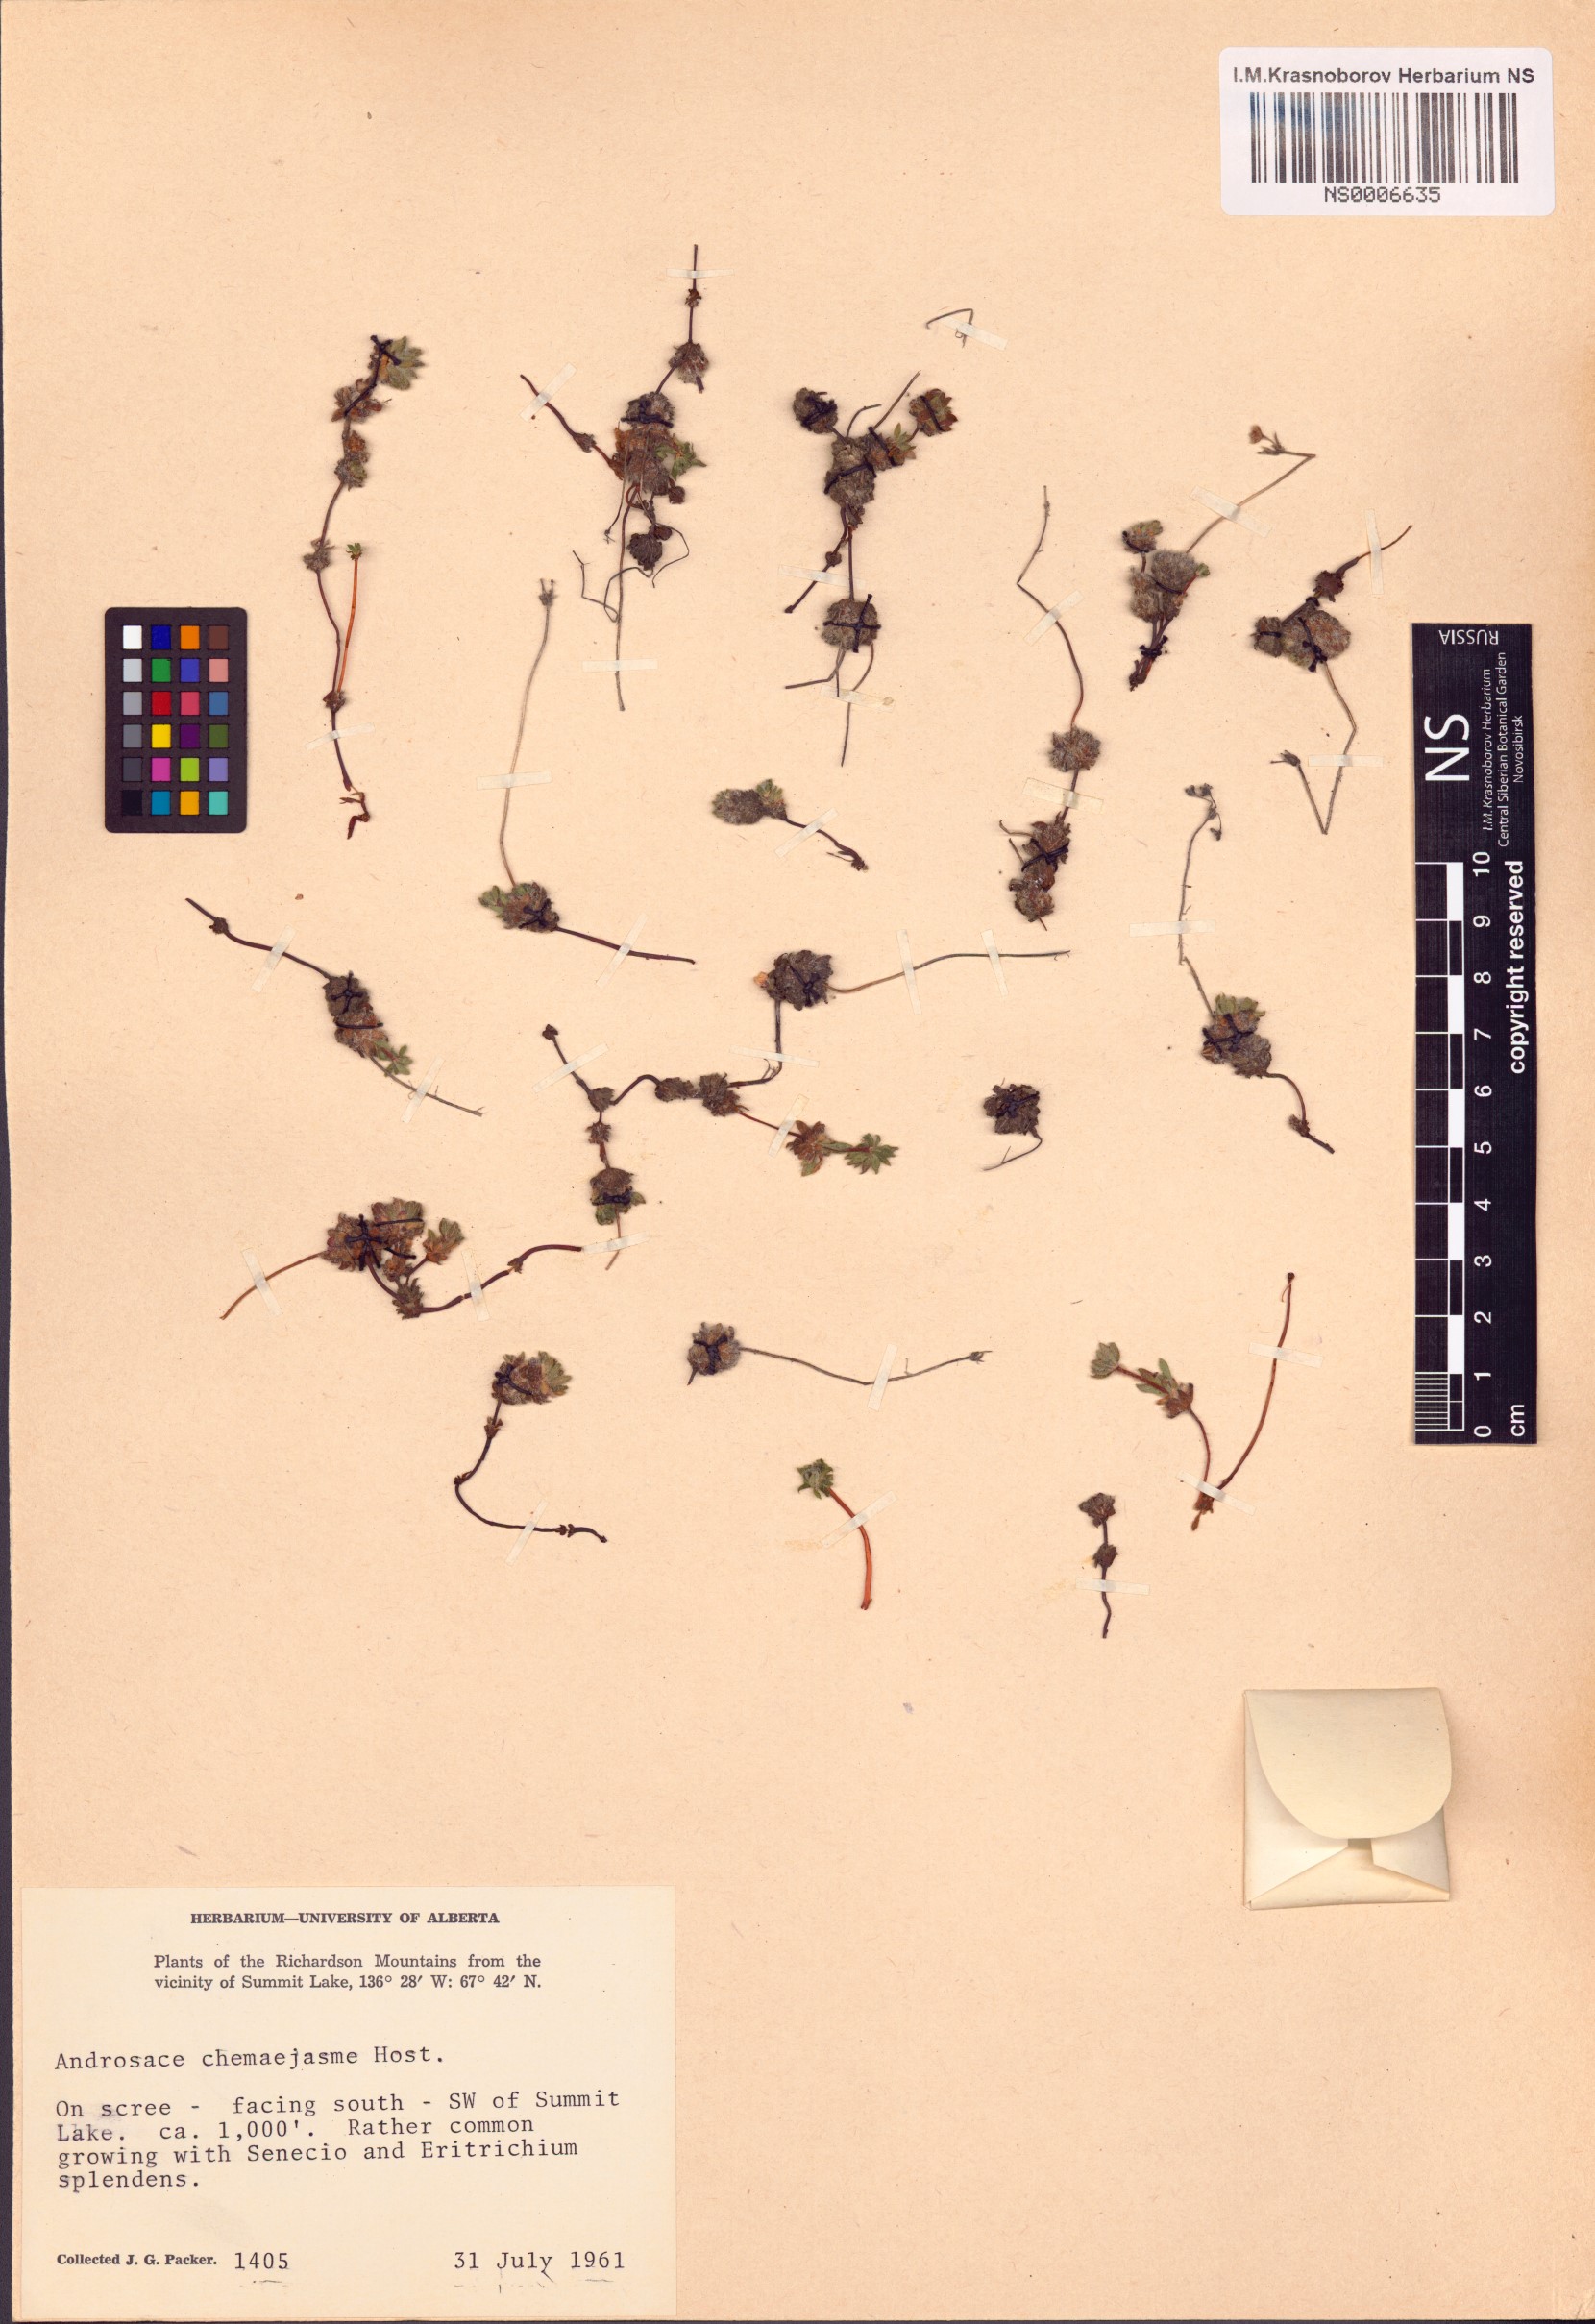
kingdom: Plantae
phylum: Tracheophyta
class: Magnoliopsida
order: Ericales
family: Primulaceae
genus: Androsace
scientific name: Androsace chamaejasme
